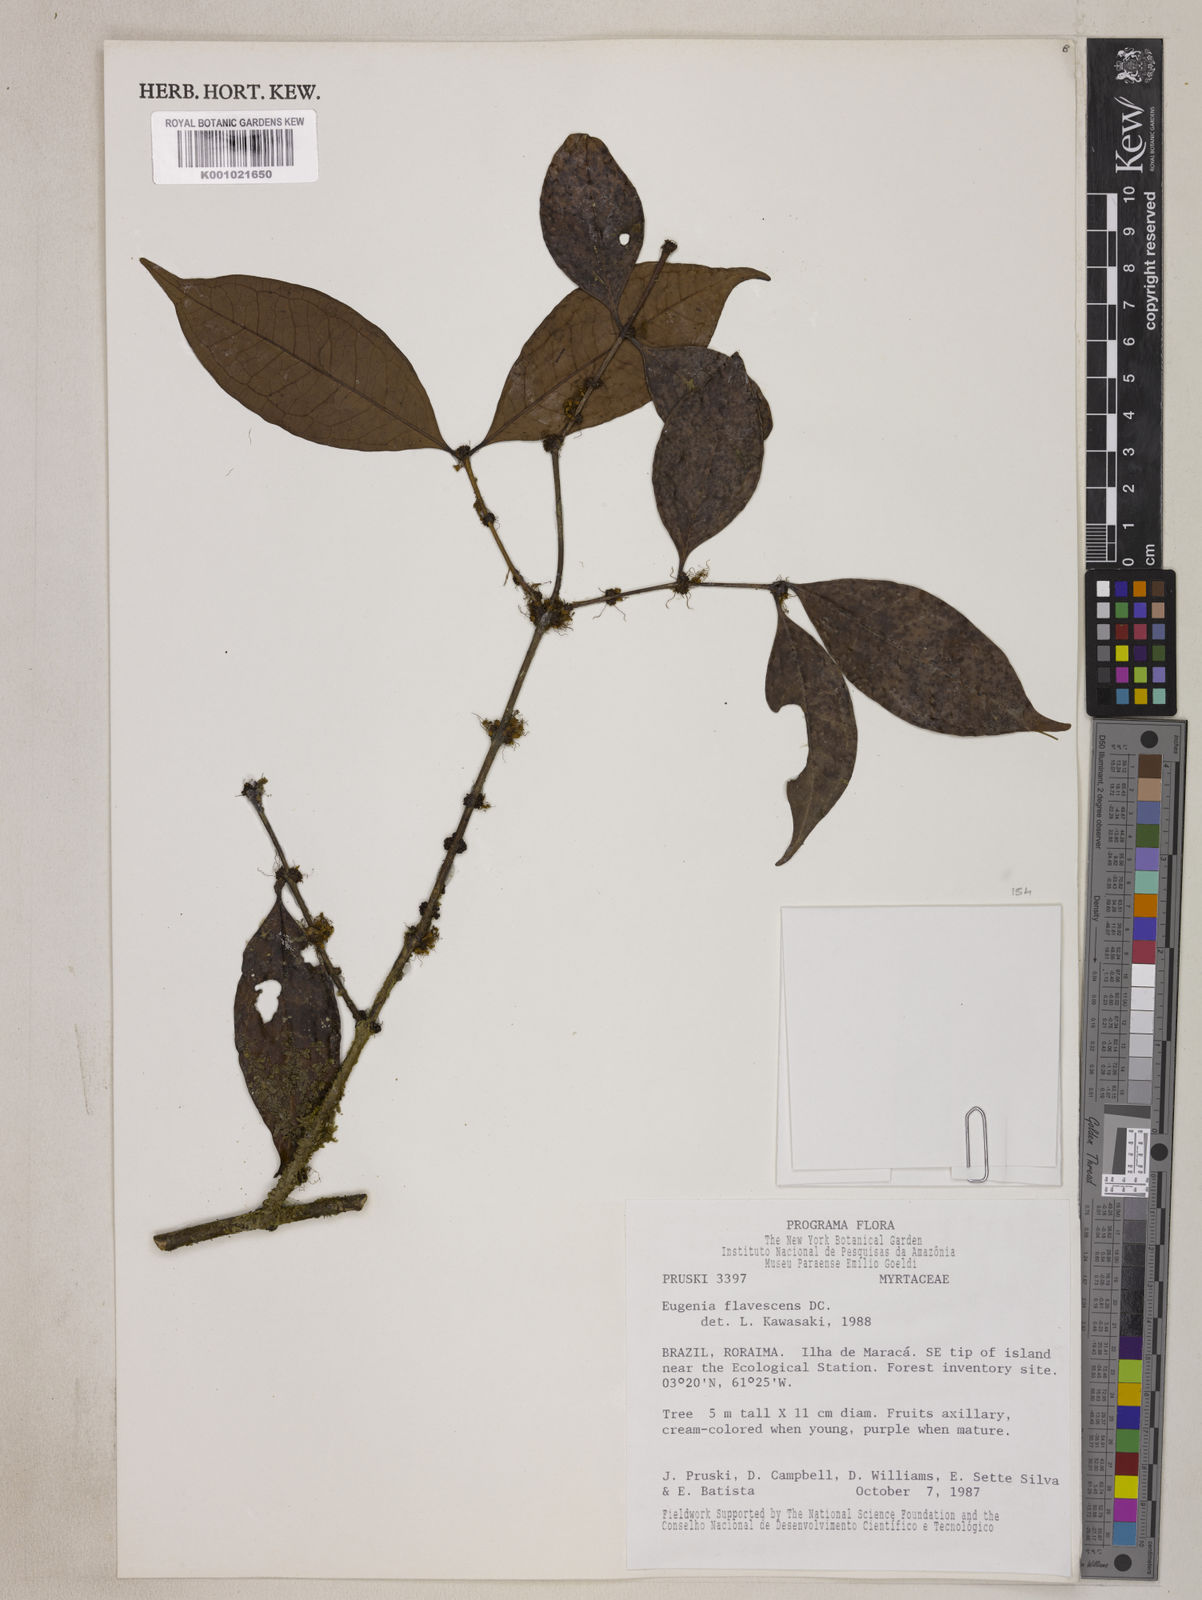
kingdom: Plantae
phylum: Tracheophyta
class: Magnoliopsida
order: Myrtales
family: Myrtaceae
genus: Eugenia
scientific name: Eugenia flavescens
